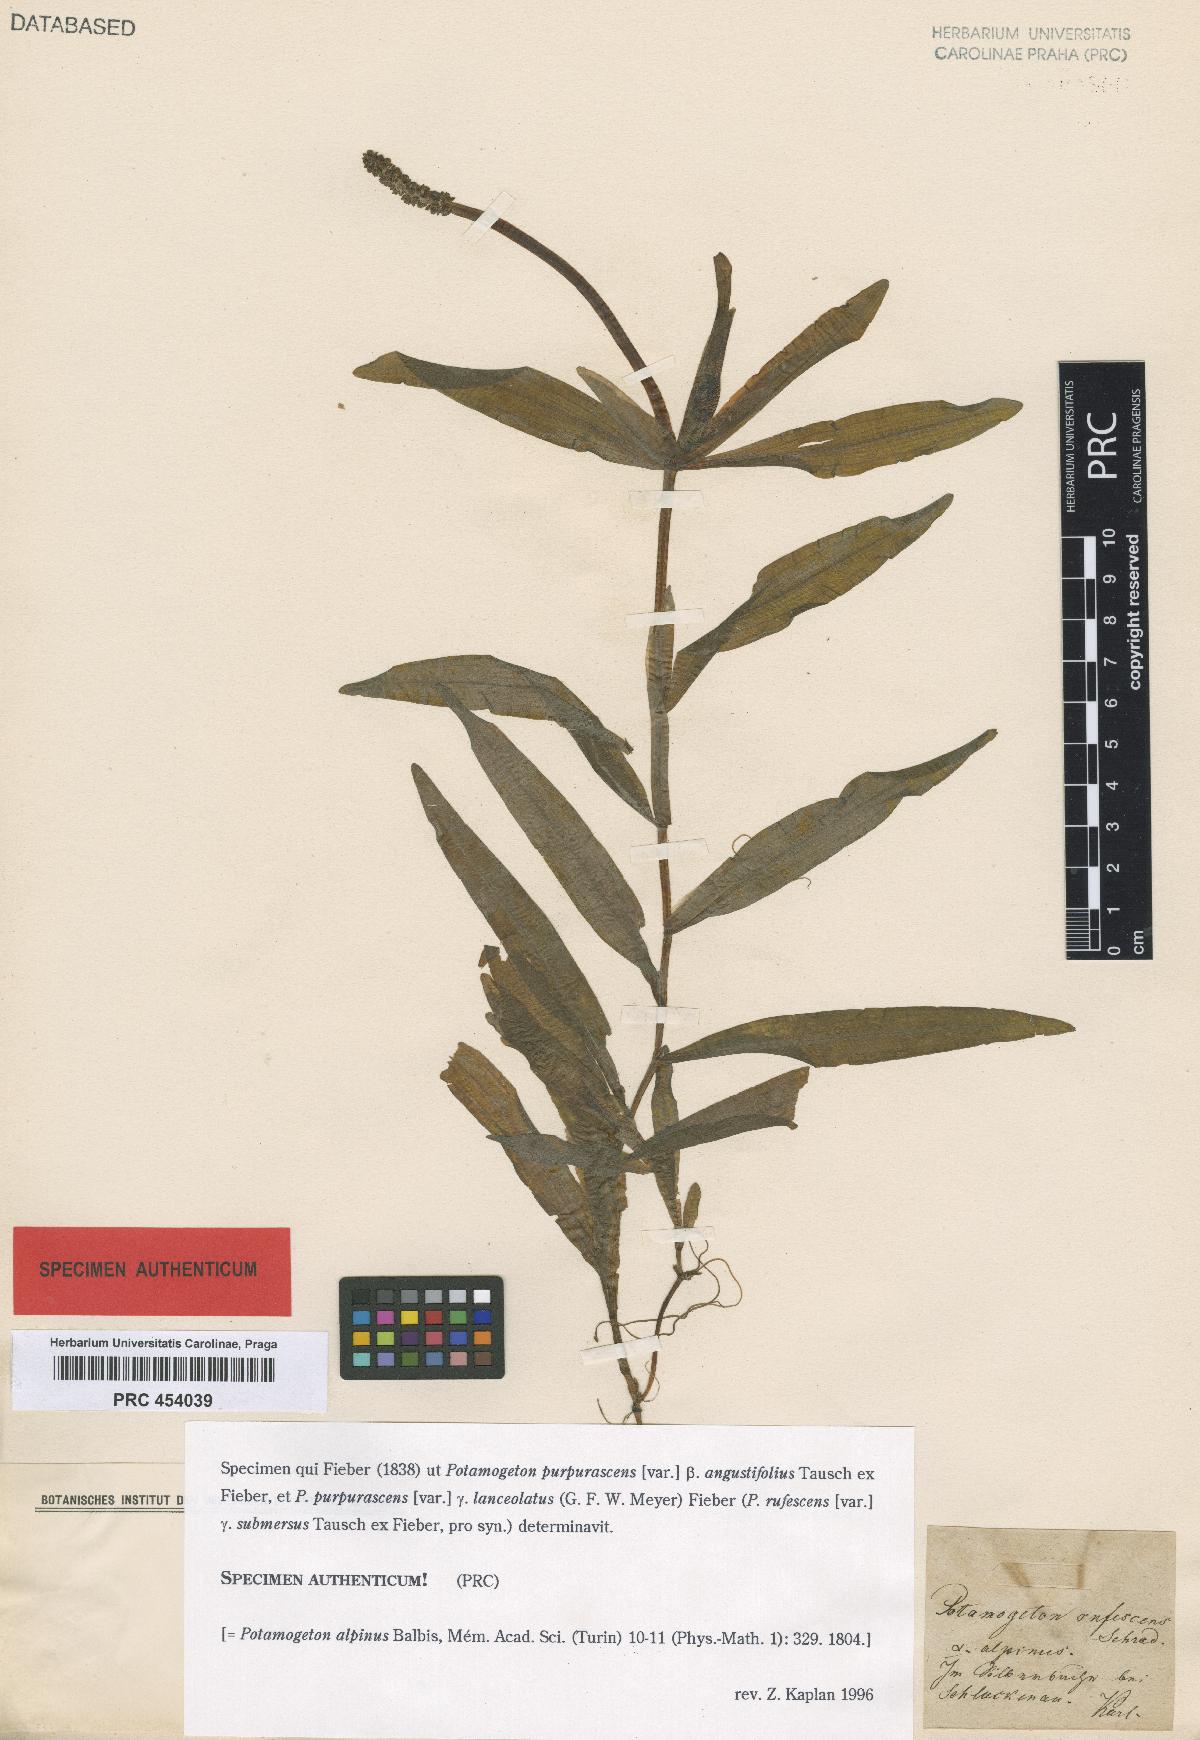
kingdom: Plantae
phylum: Tracheophyta
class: Liliopsida
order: Alismatales
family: Potamogetonaceae
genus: Potamogeton
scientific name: Potamogeton alpinus
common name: Red pondweed
